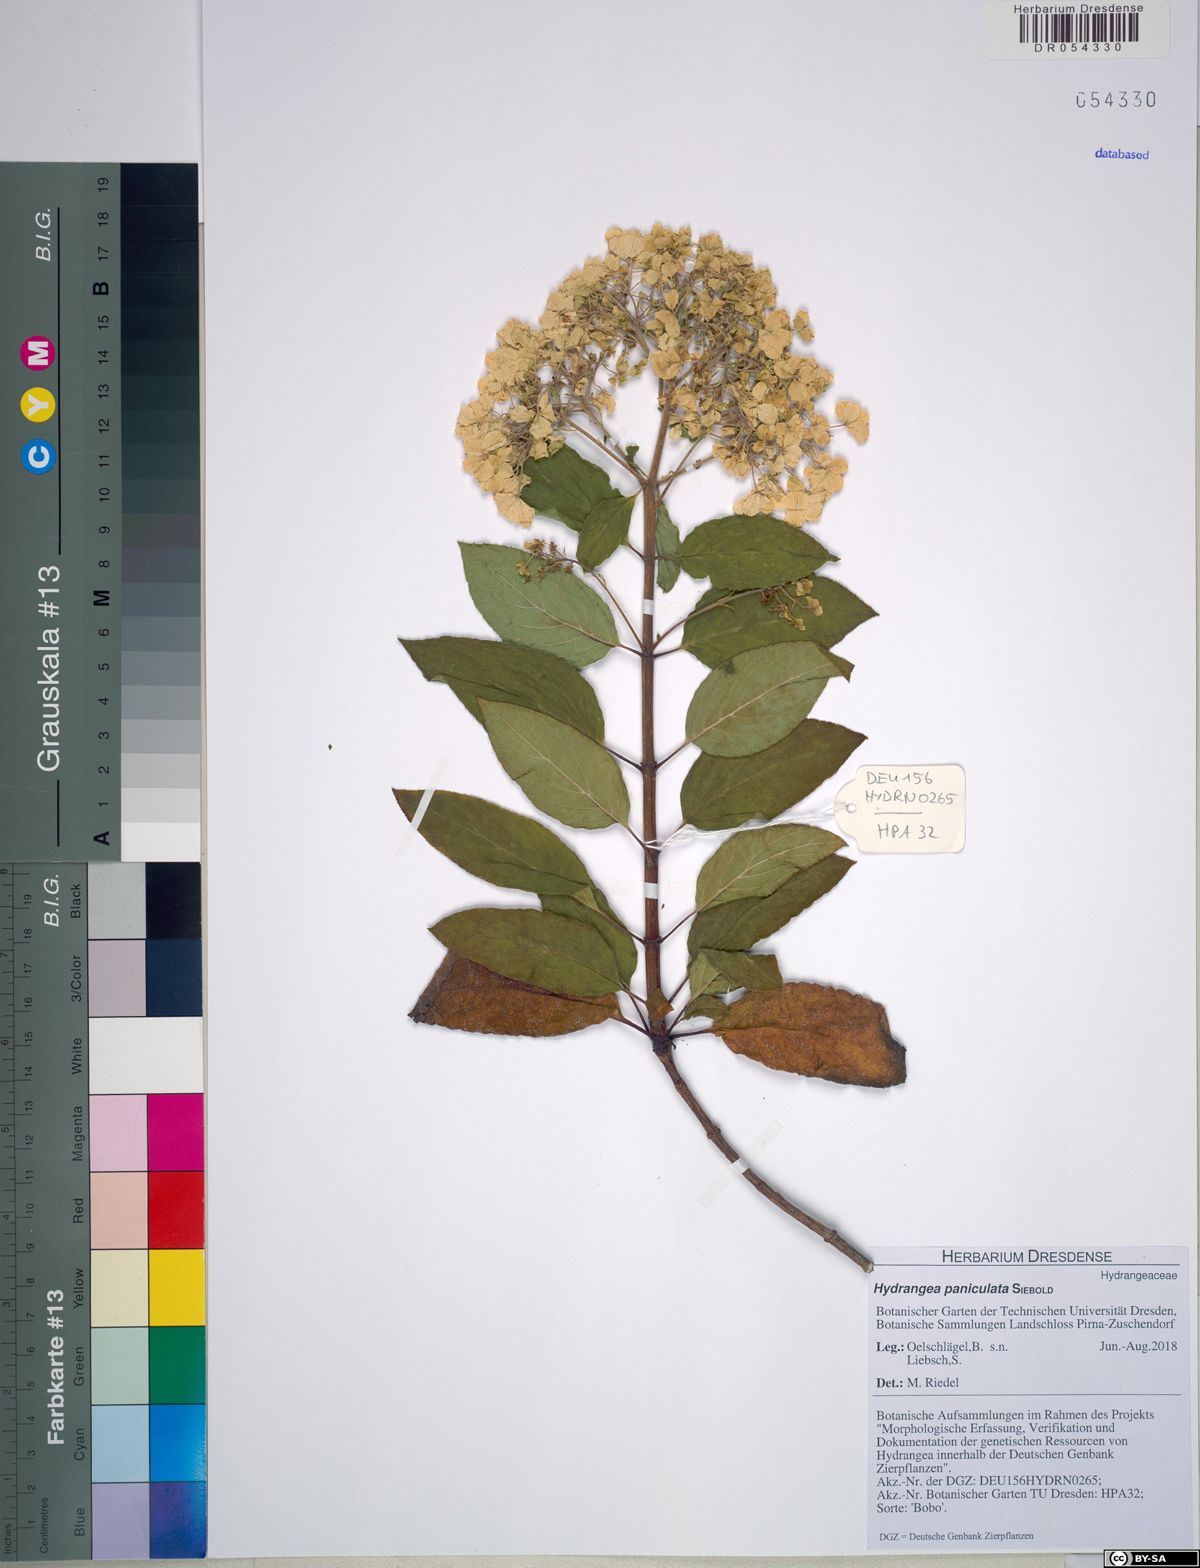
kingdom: Plantae
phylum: Tracheophyta
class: Magnoliopsida
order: Cornales
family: Hydrangeaceae
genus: Hydrangea
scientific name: Hydrangea paniculata
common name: Panicled hydrangea
